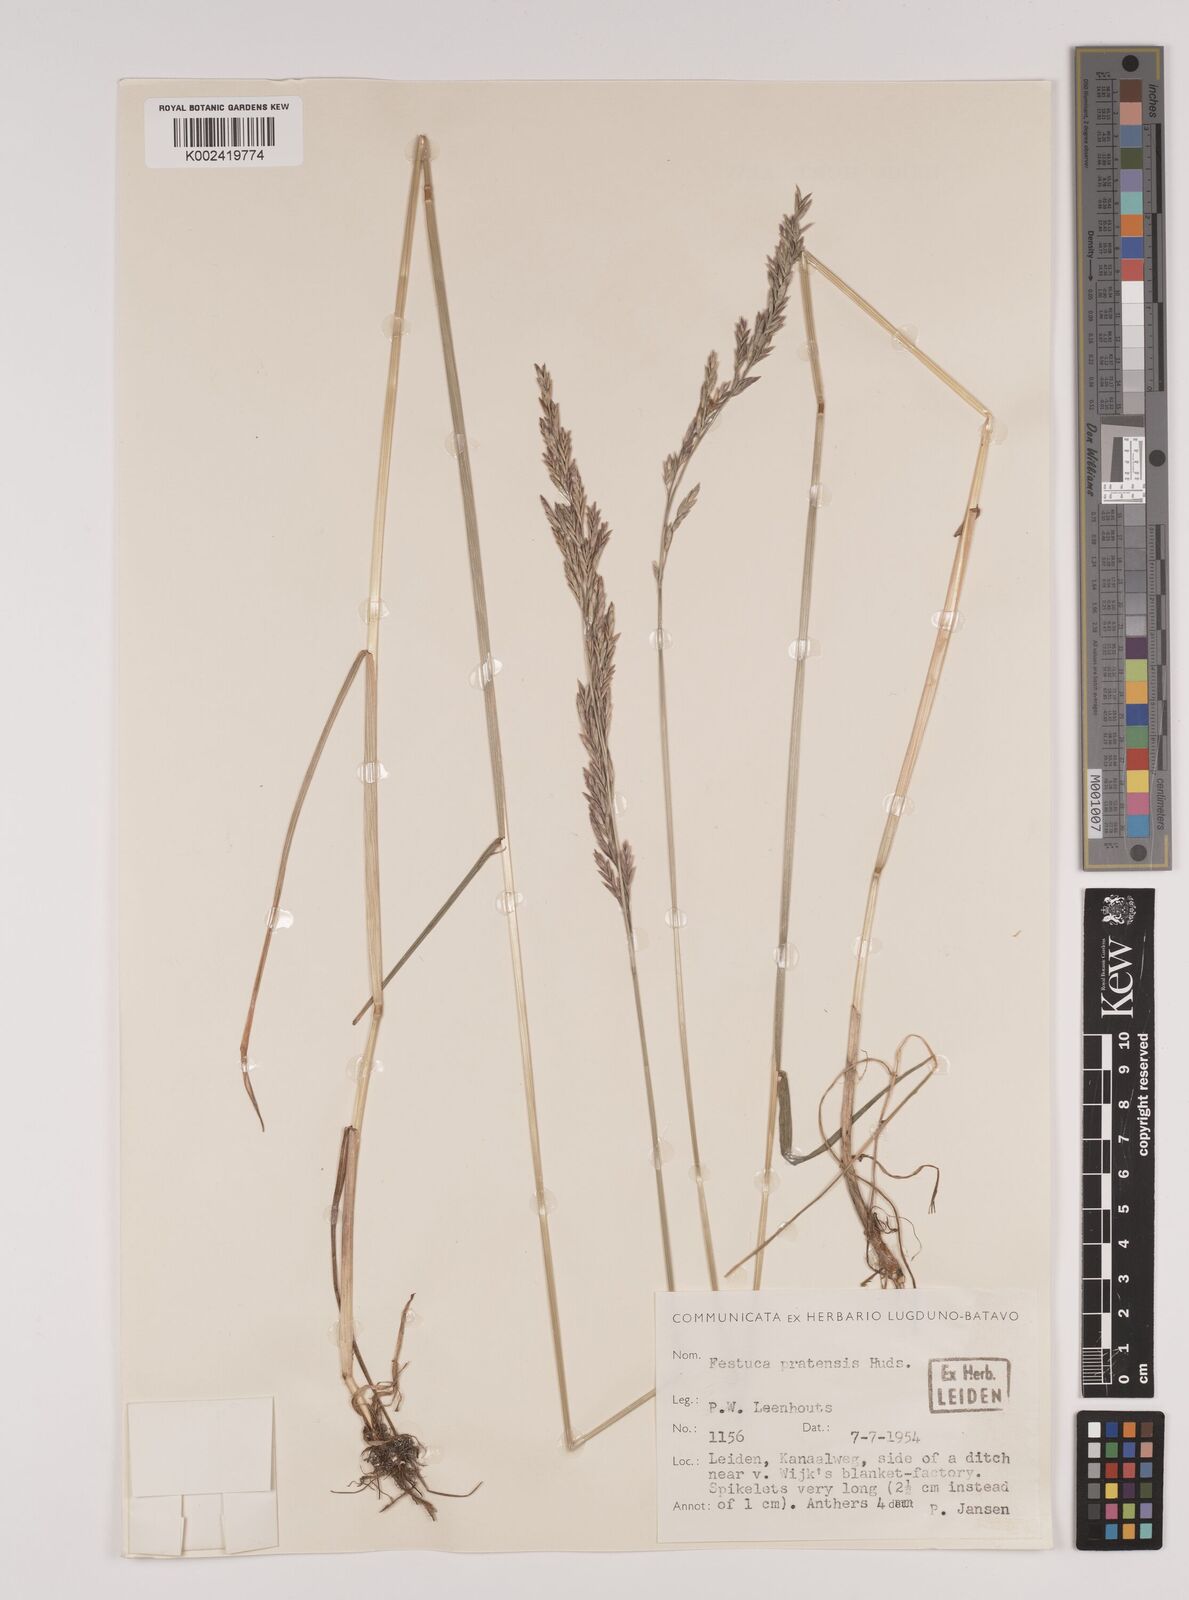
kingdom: Plantae
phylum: Tracheophyta
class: Liliopsida
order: Poales
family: Poaceae
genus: Lolium
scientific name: Lolium pratense
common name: Dover grass
